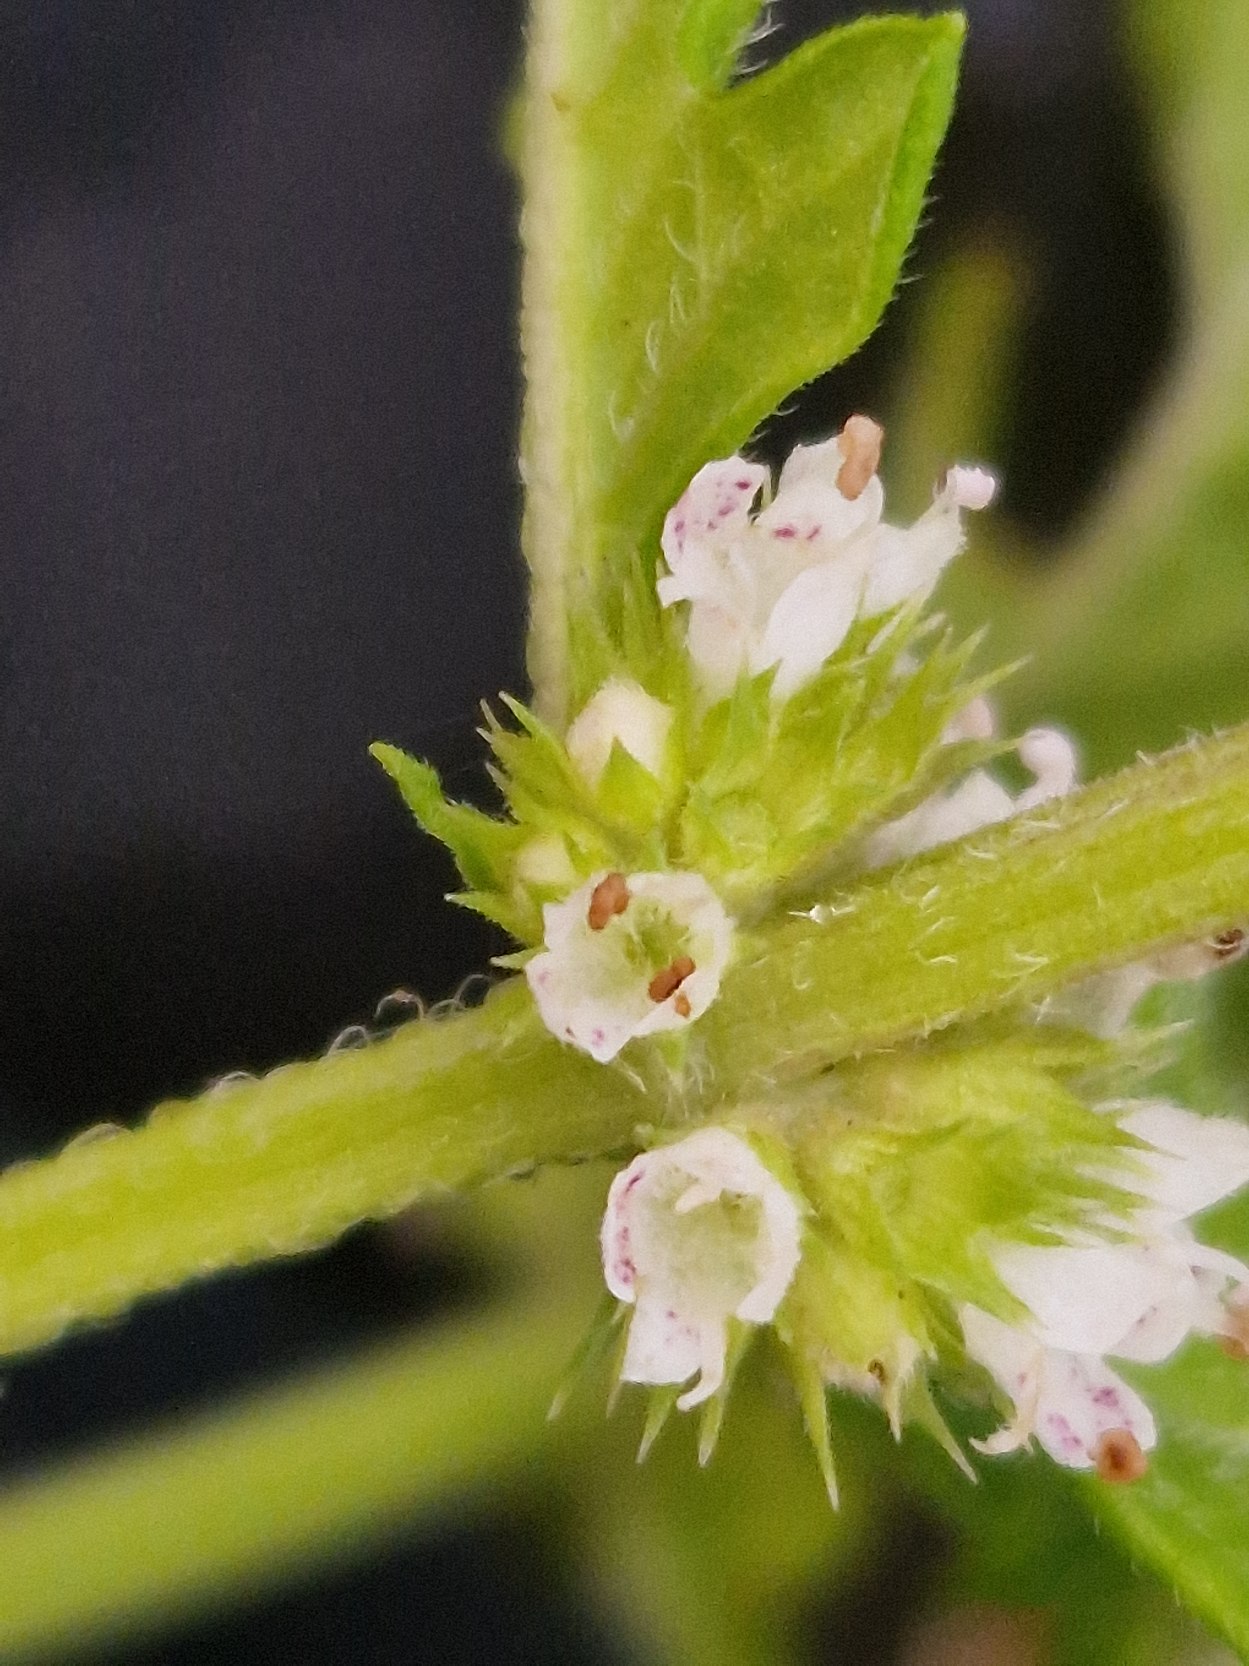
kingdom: Plantae
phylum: Tracheophyta
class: Magnoliopsida
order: Lamiales
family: Lamiaceae
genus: Lycopus
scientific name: Lycopus europaeus
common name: Sværtevæld
